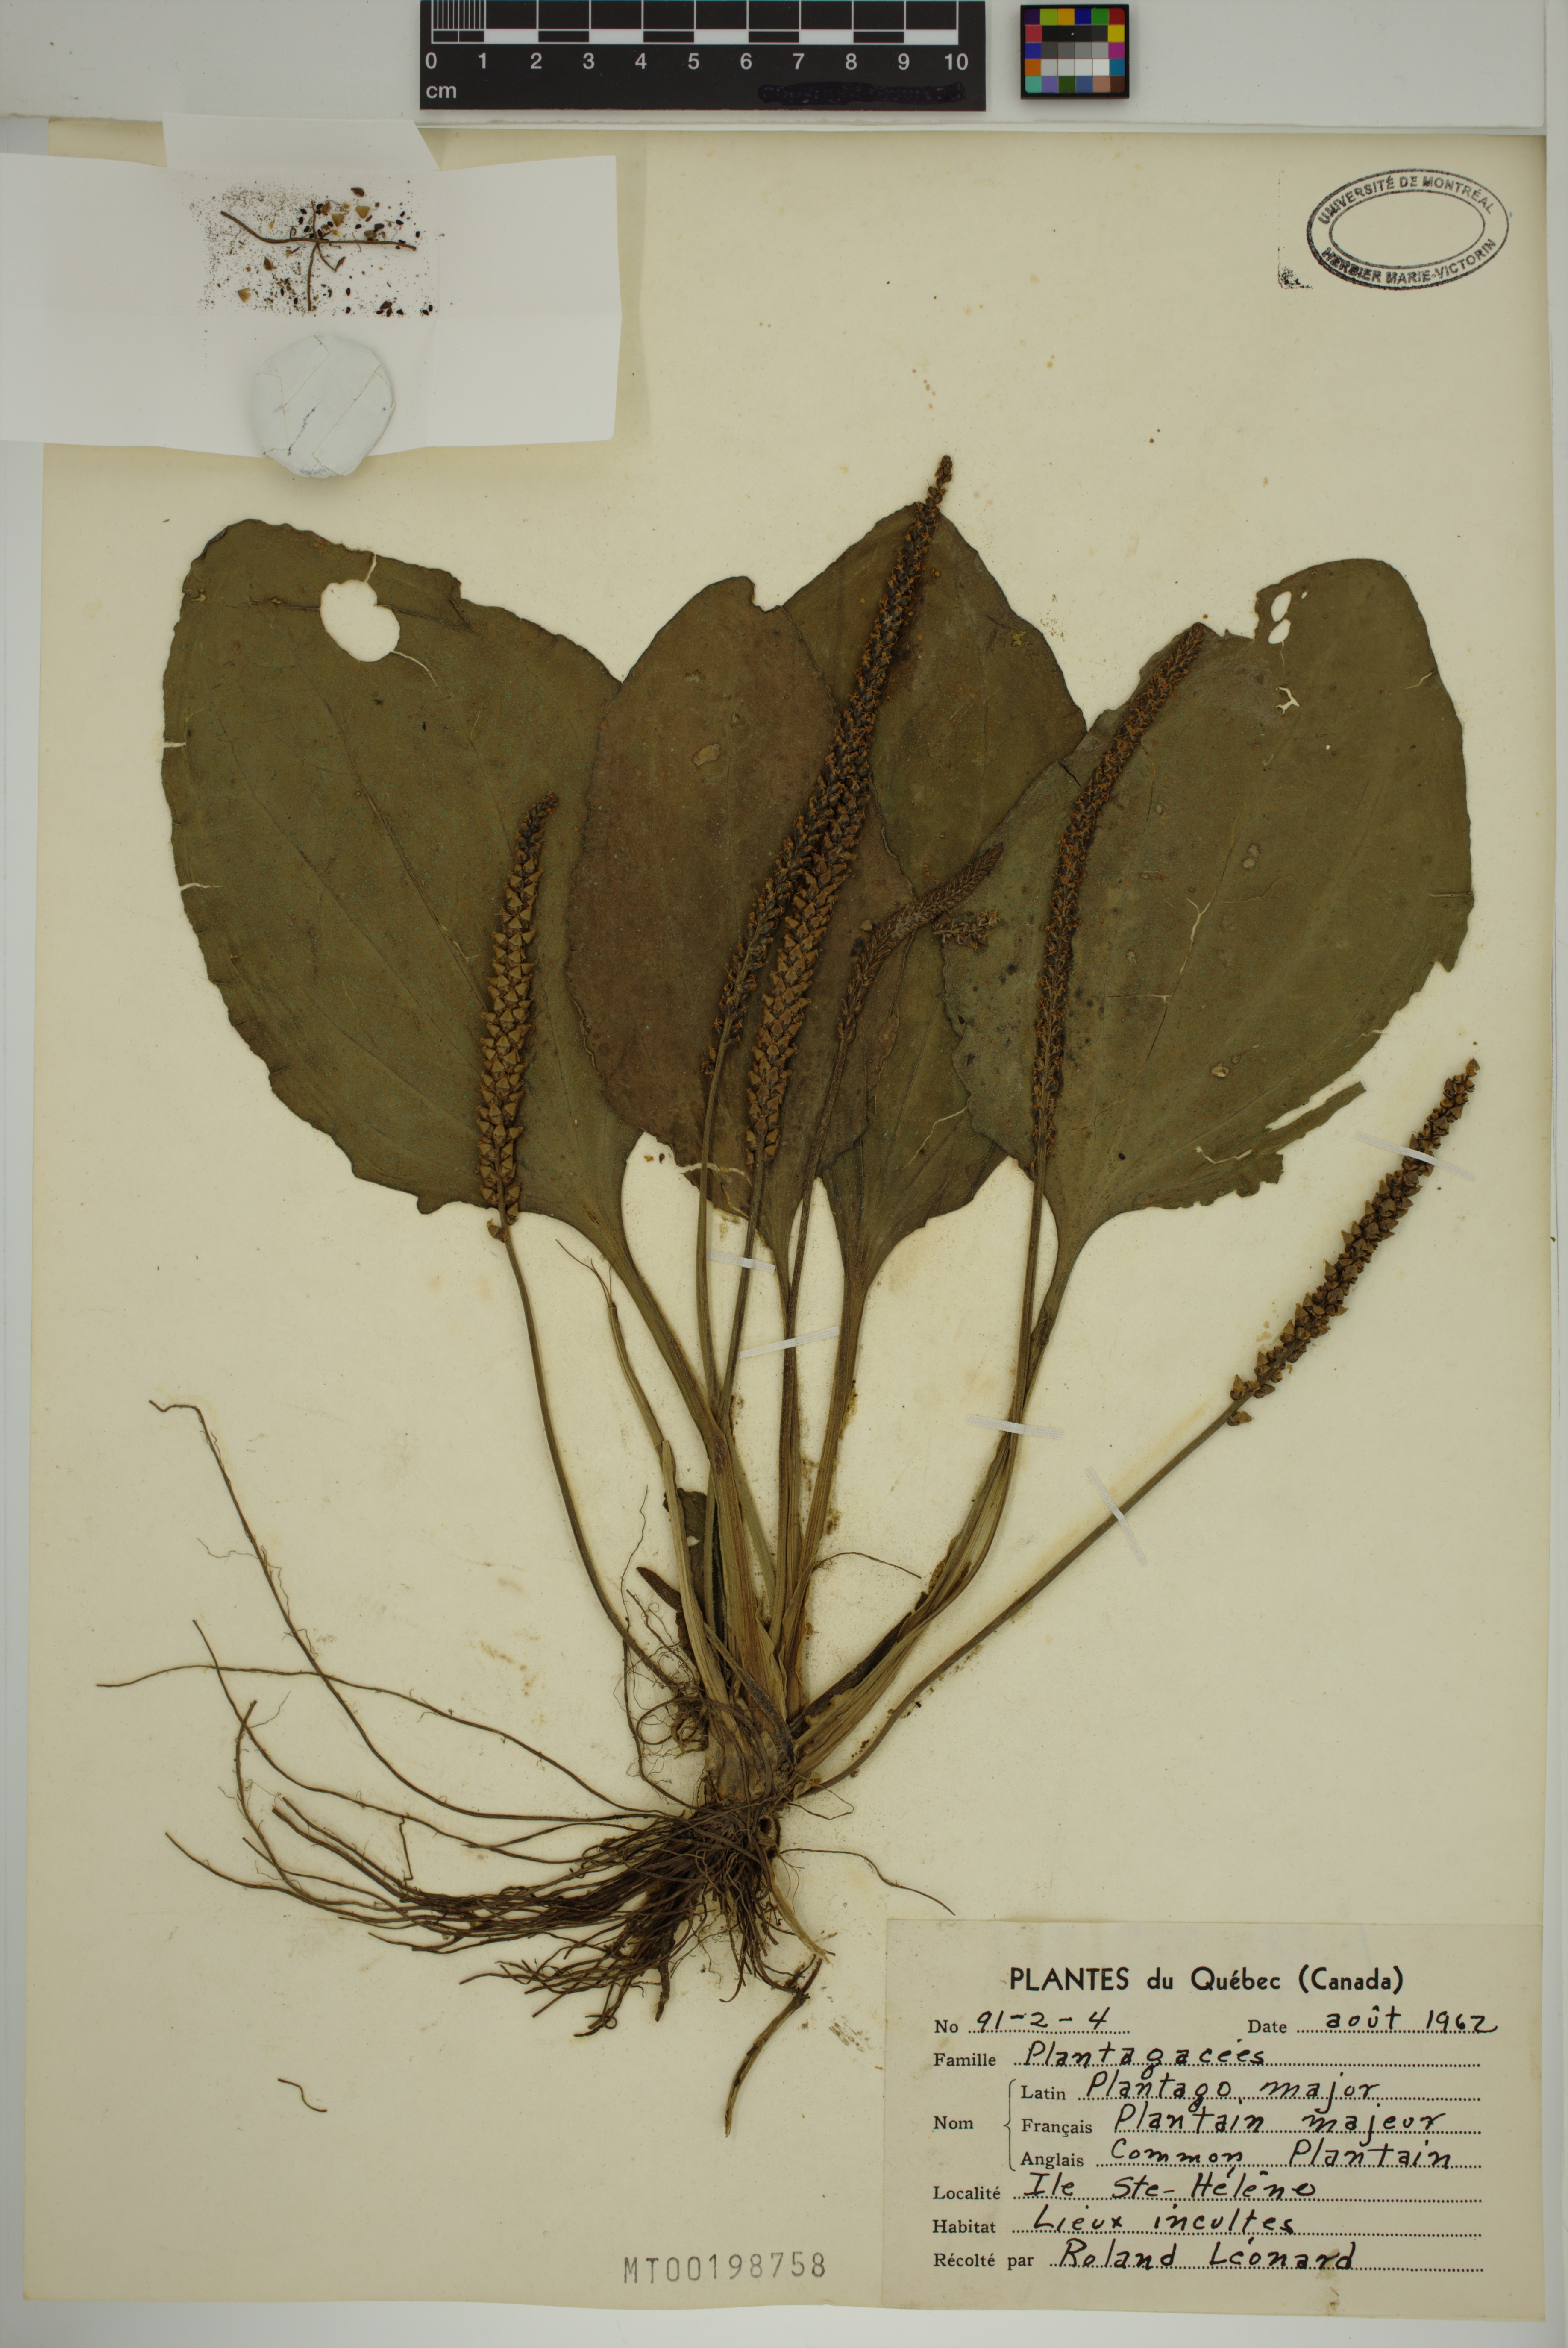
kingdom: Plantae
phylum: Tracheophyta
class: Magnoliopsida
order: Lamiales
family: Plantaginaceae
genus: Plantago
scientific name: Plantago major
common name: Common plantain
